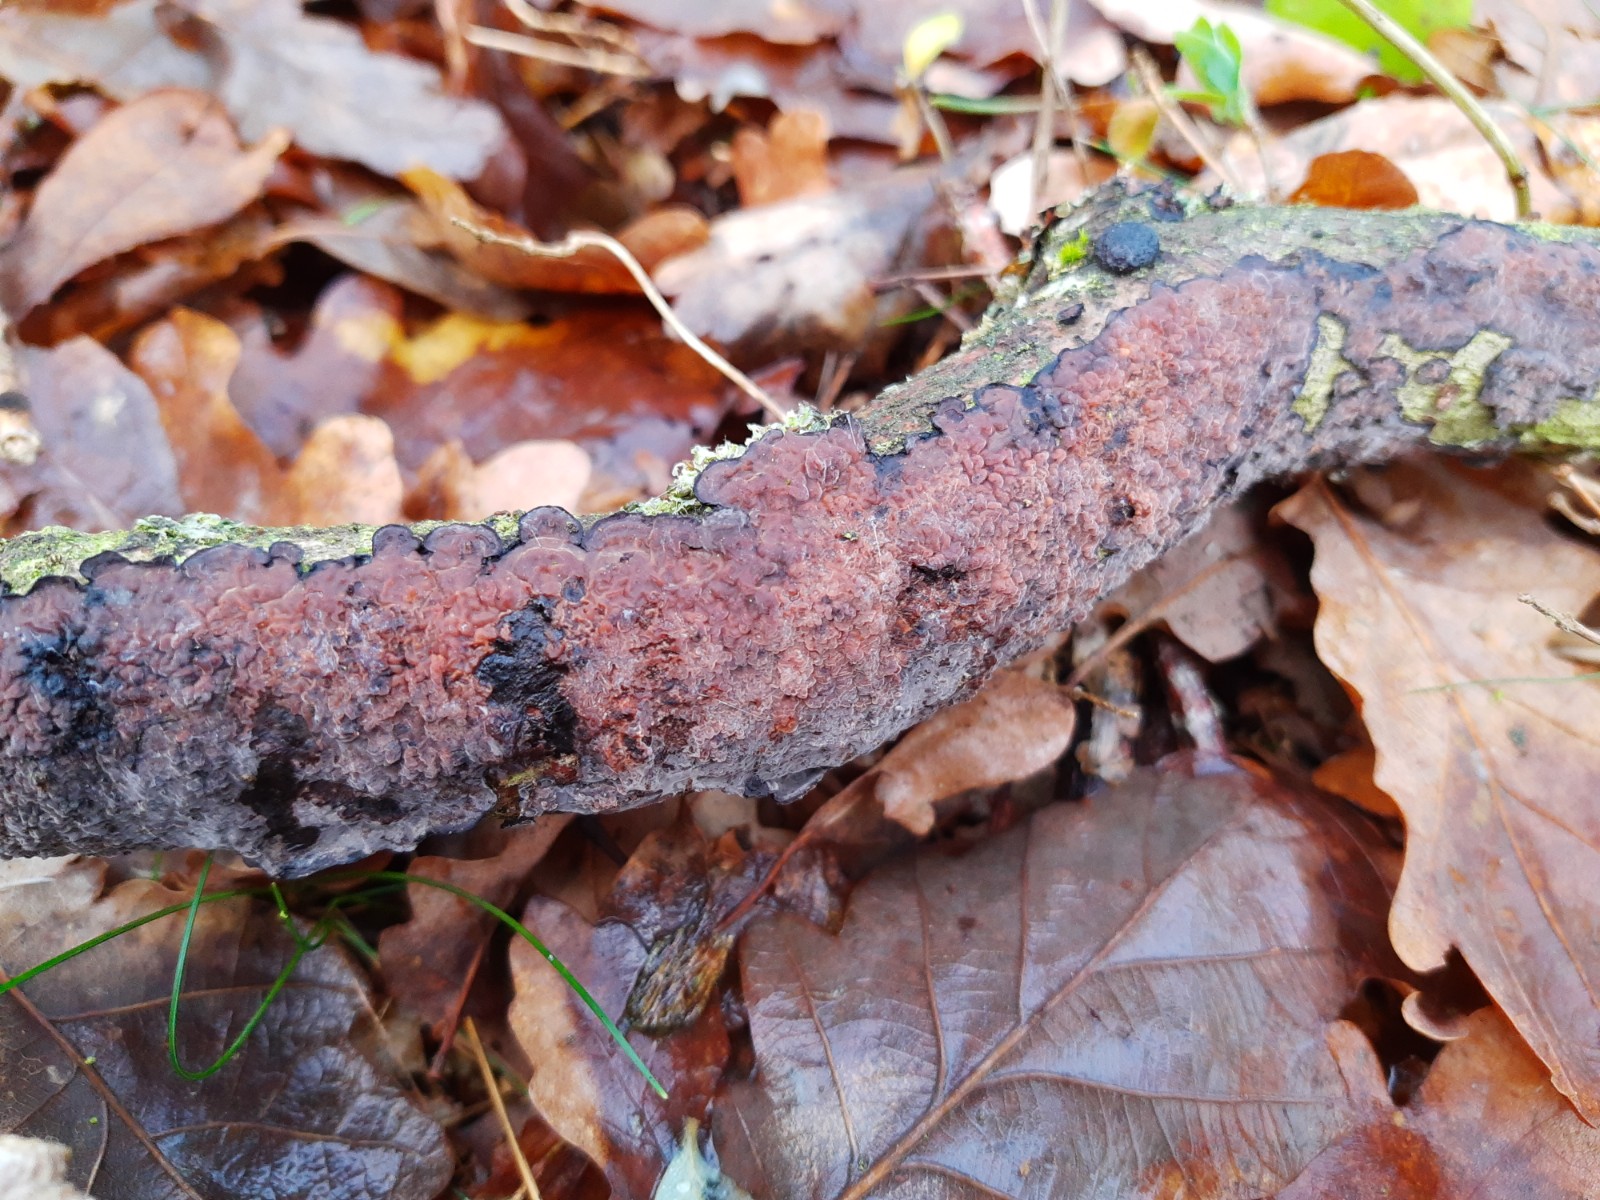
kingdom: Fungi
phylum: Basidiomycota
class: Agaricomycetes
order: Russulales
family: Peniophoraceae
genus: Peniophora
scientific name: Peniophora quercina
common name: ege-voksskind
